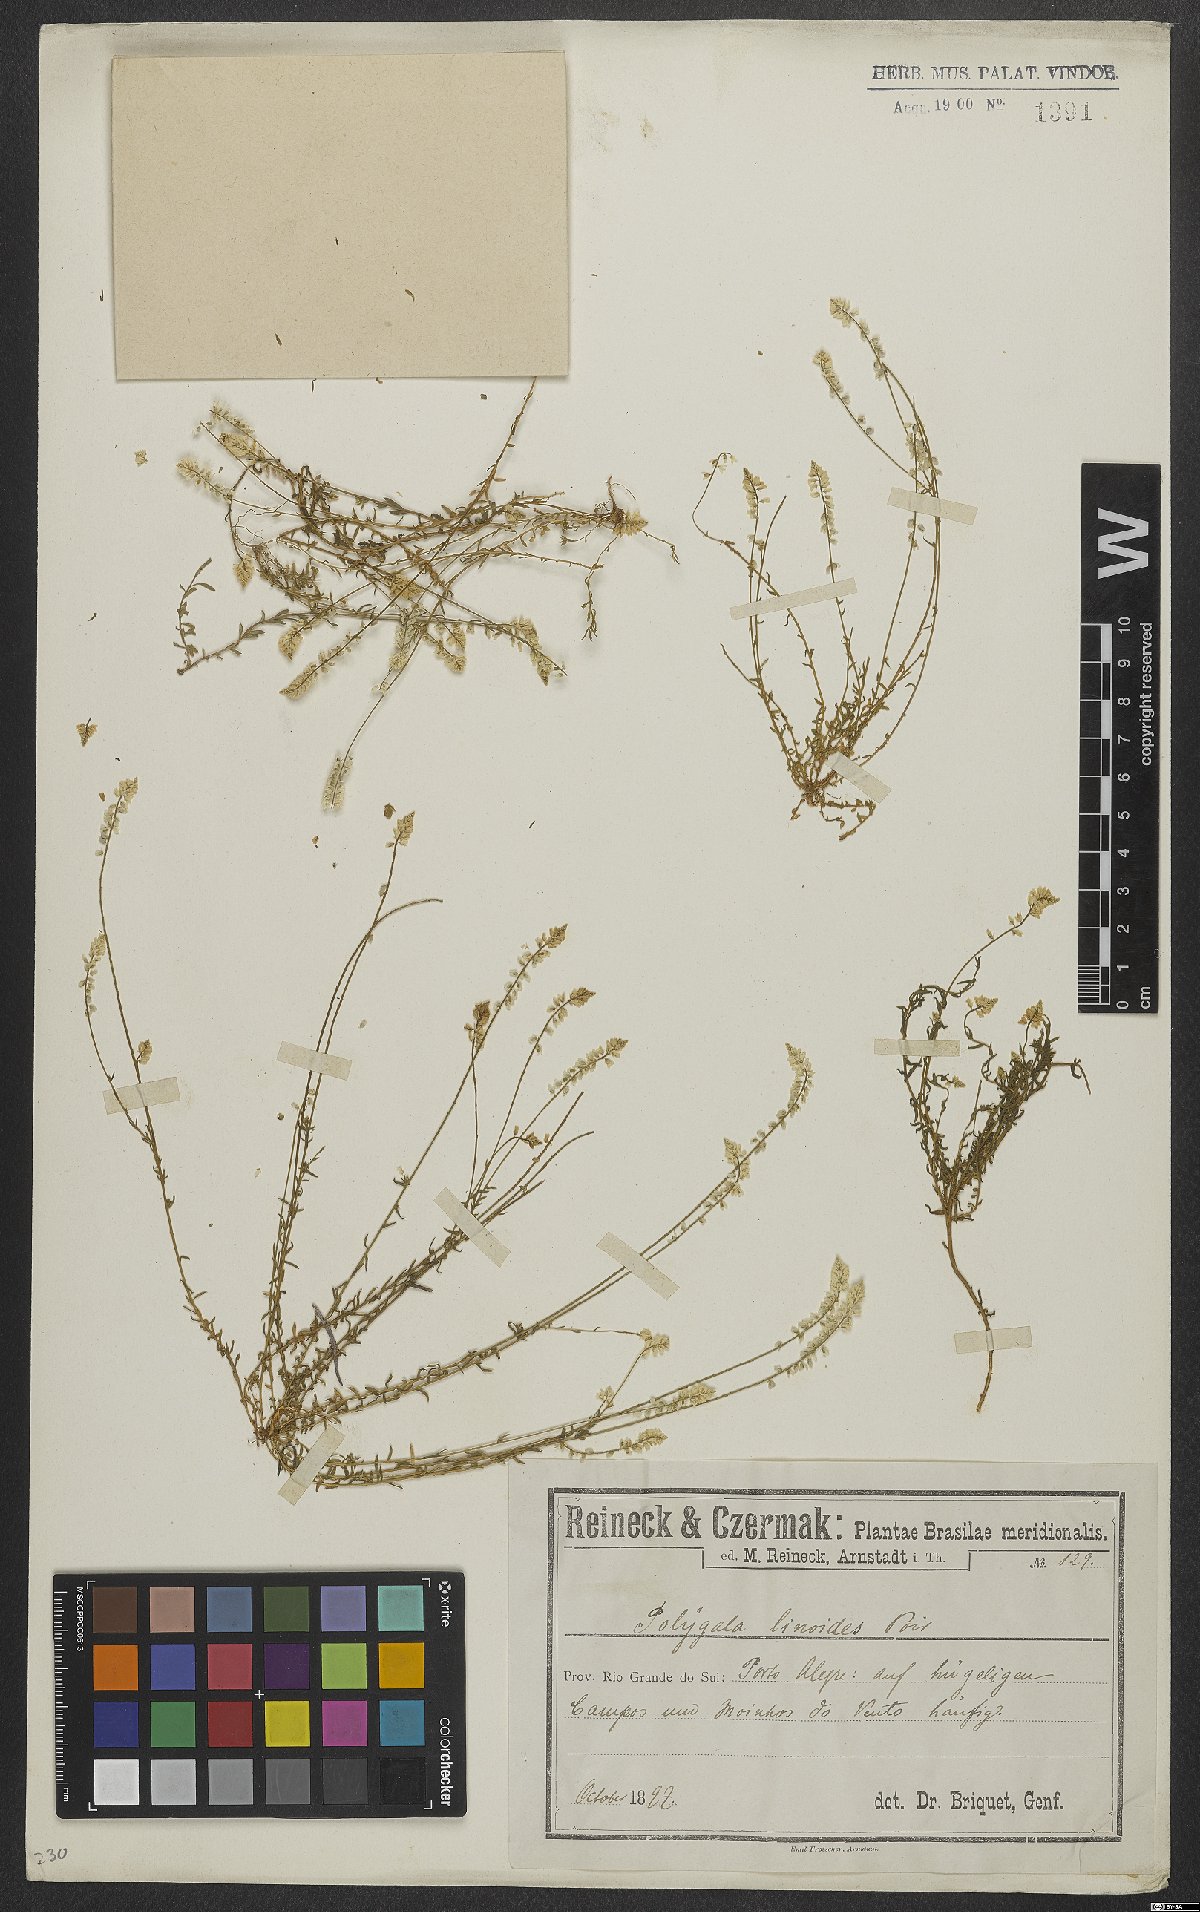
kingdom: Plantae
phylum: Tracheophyta
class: Magnoliopsida
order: Fabales
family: Polygalaceae
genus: Polygala
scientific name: Polygala linoides
